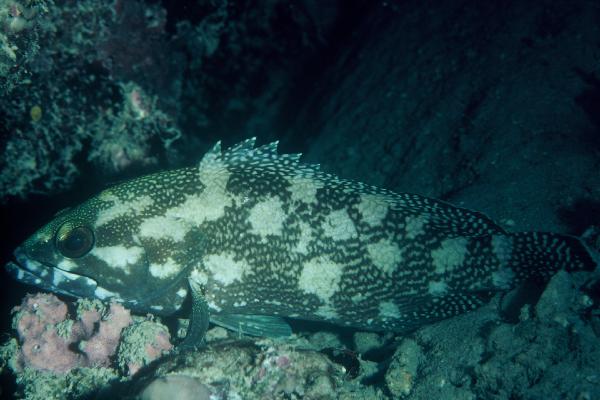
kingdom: Animalia
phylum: Chordata
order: Perciformes
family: Serranidae
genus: Epinephelus
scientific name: Epinephelus ongus
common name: White-streaked grouper
